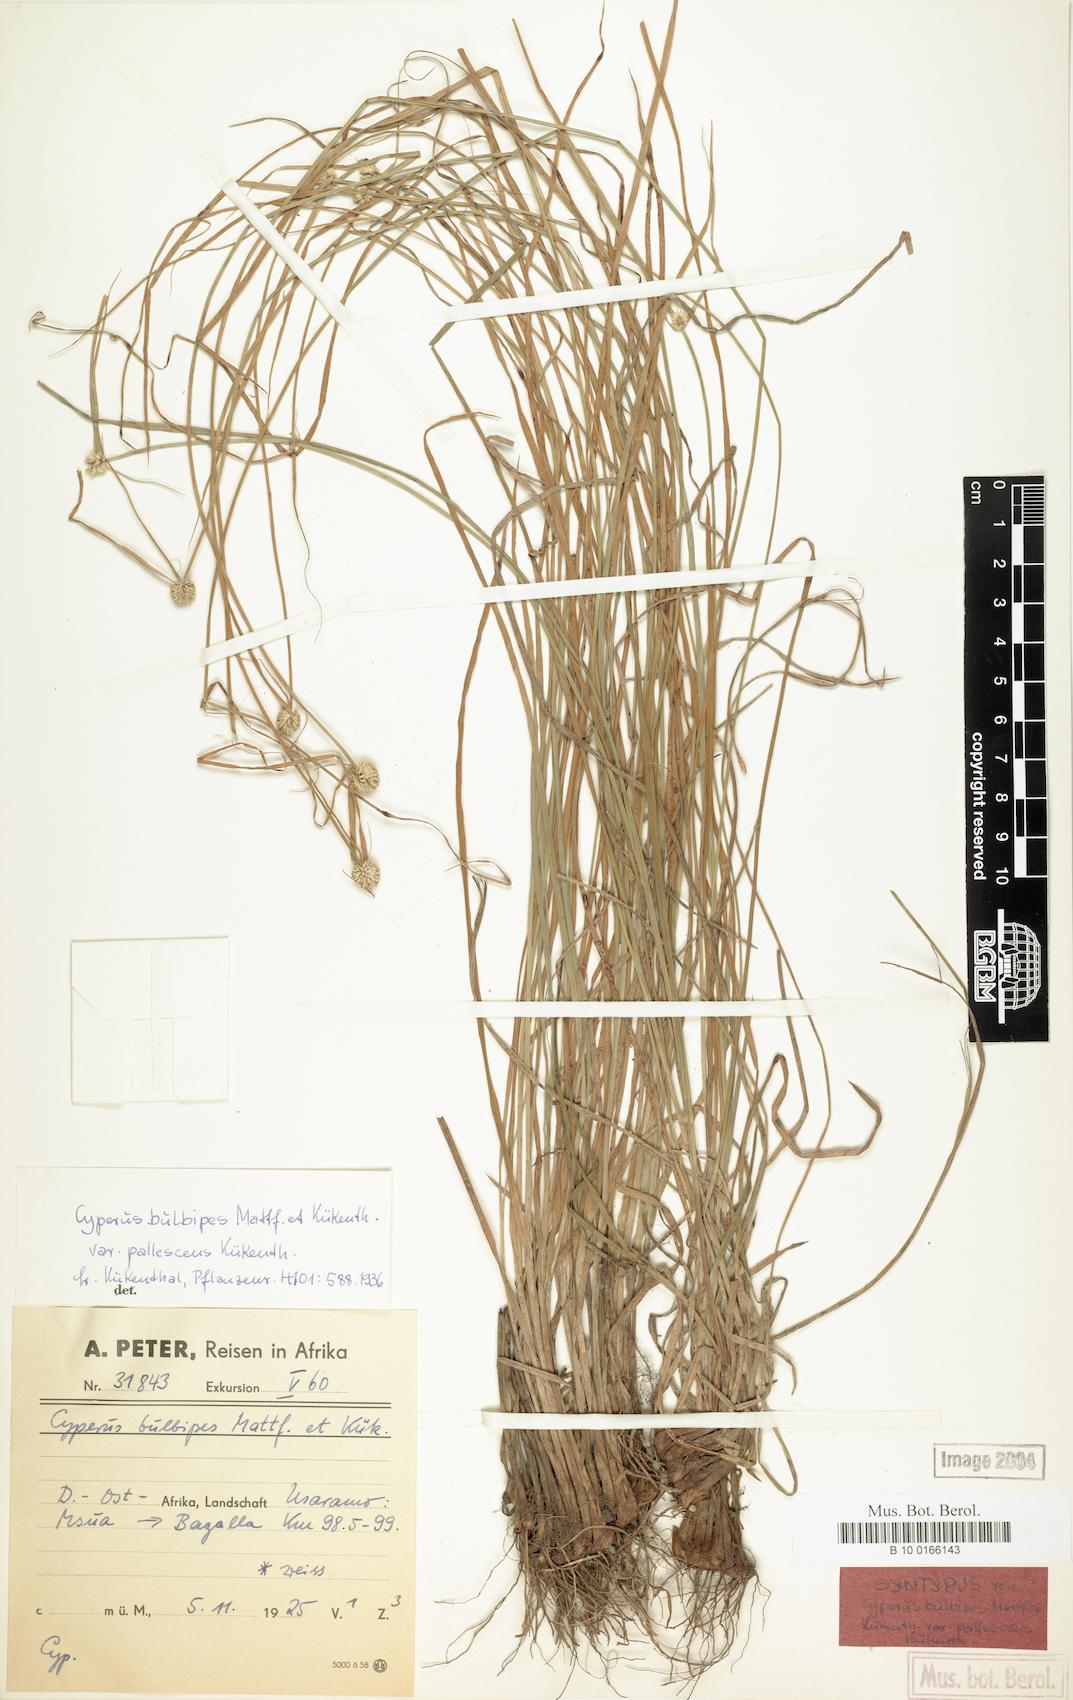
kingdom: Plantae
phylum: Tracheophyta
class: Liliopsida
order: Poales
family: Cyperaceae
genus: Cyperus
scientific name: Cyperus bulbipes
